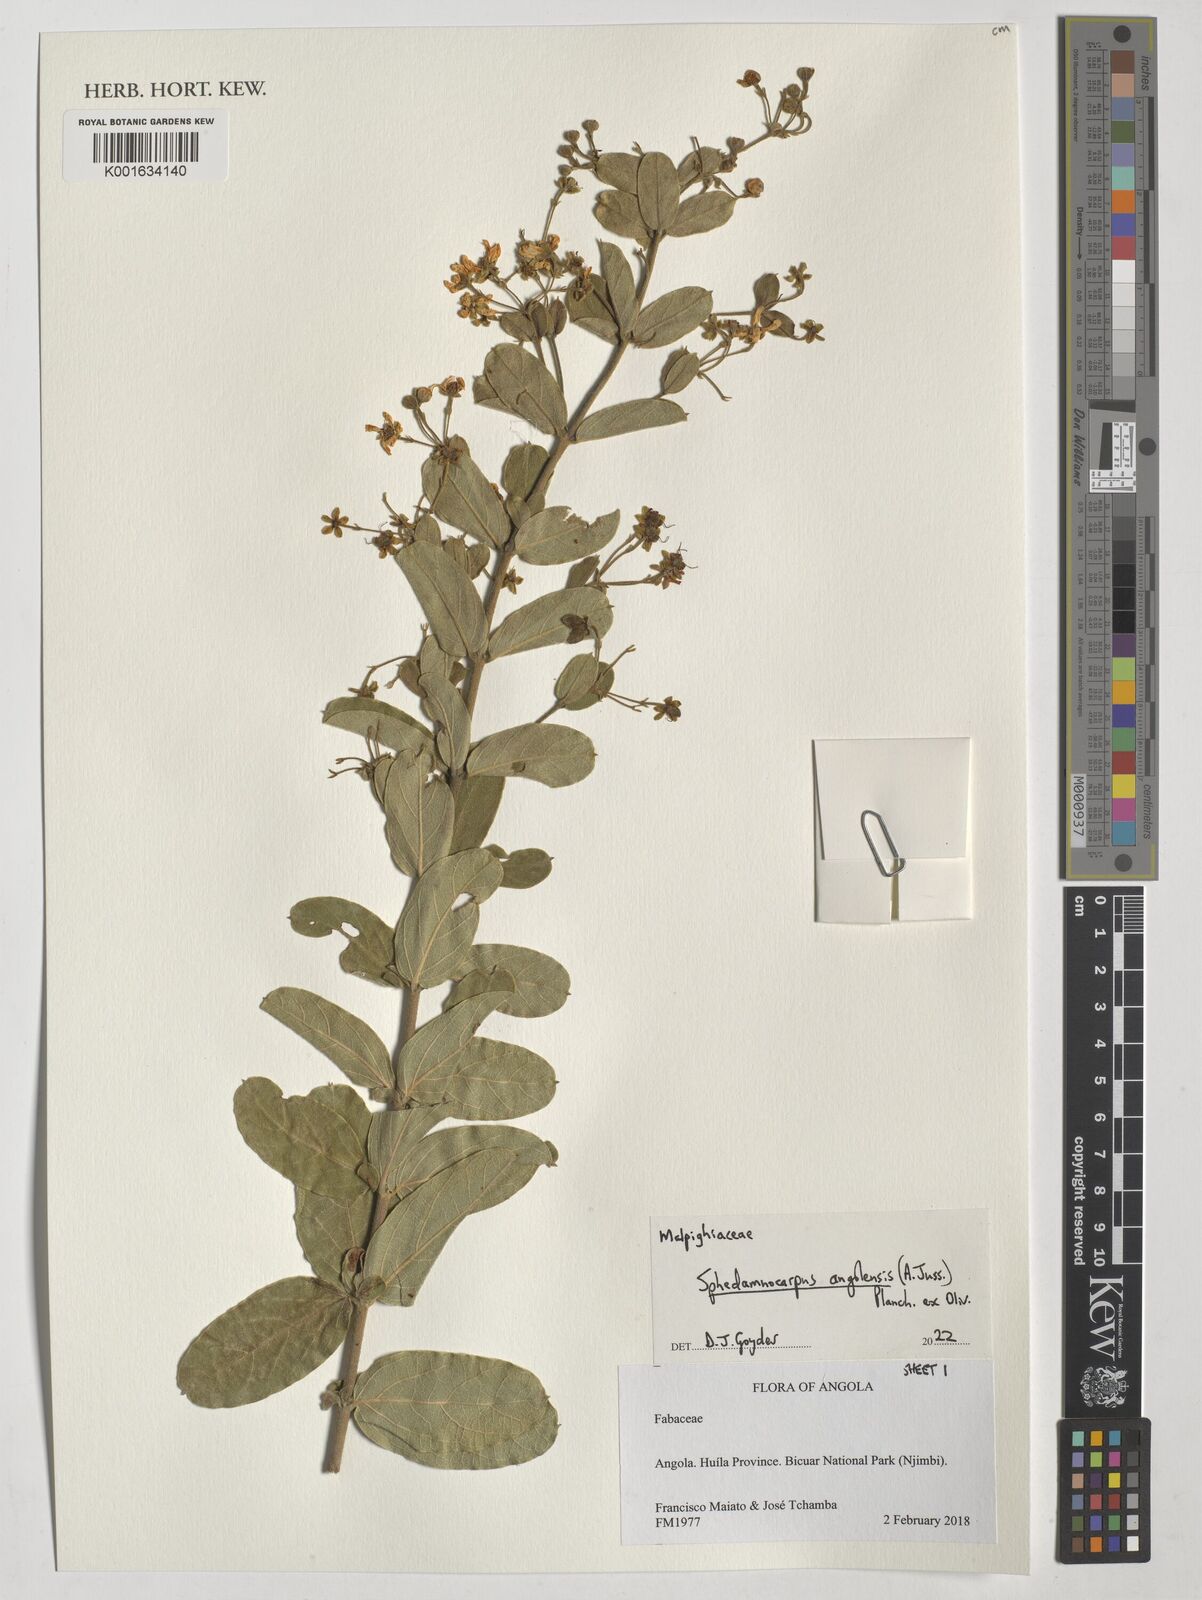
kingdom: Plantae
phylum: Tracheophyta
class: Magnoliopsida
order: Malpighiales
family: Malpighiaceae
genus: Sphedamnocarpus
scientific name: Sphedamnocarpus
